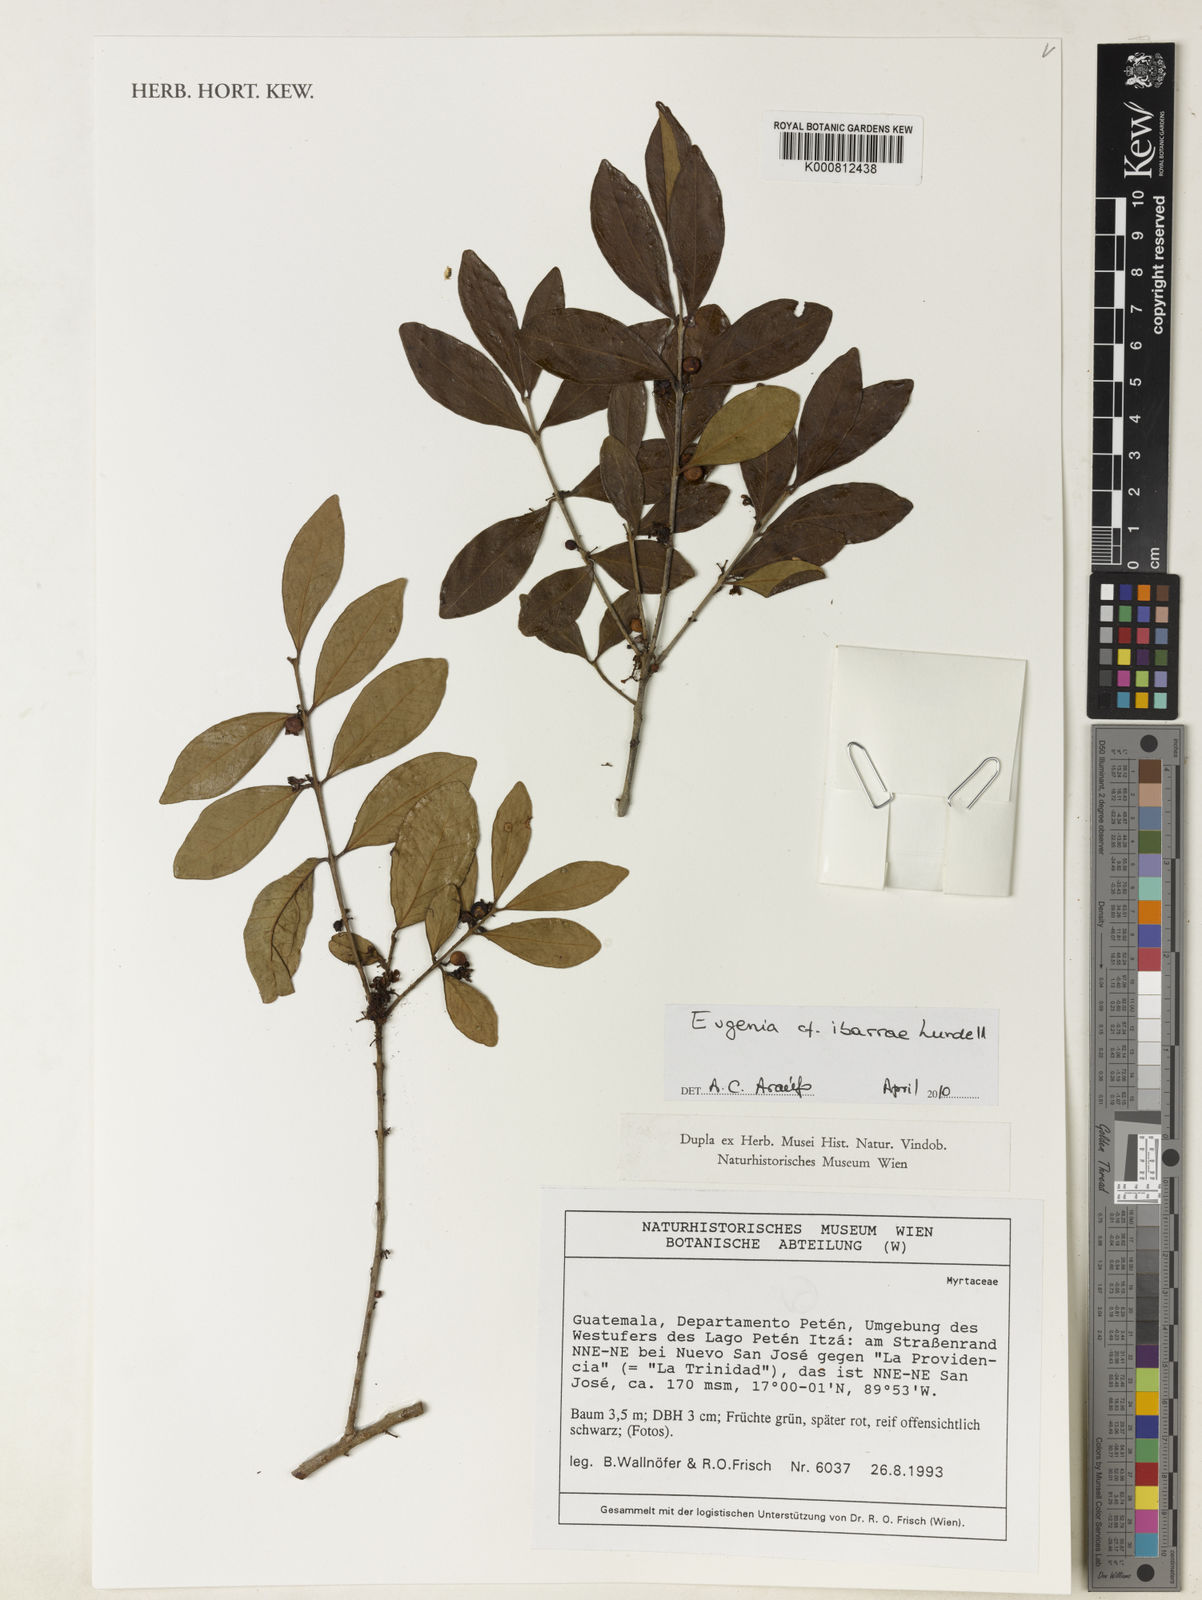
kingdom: Plantae
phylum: Tracheophyta
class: Magnoliopsida
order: Myrtales
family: Myrtaceae
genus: Eugenia
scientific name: Eugenia ibarrae
